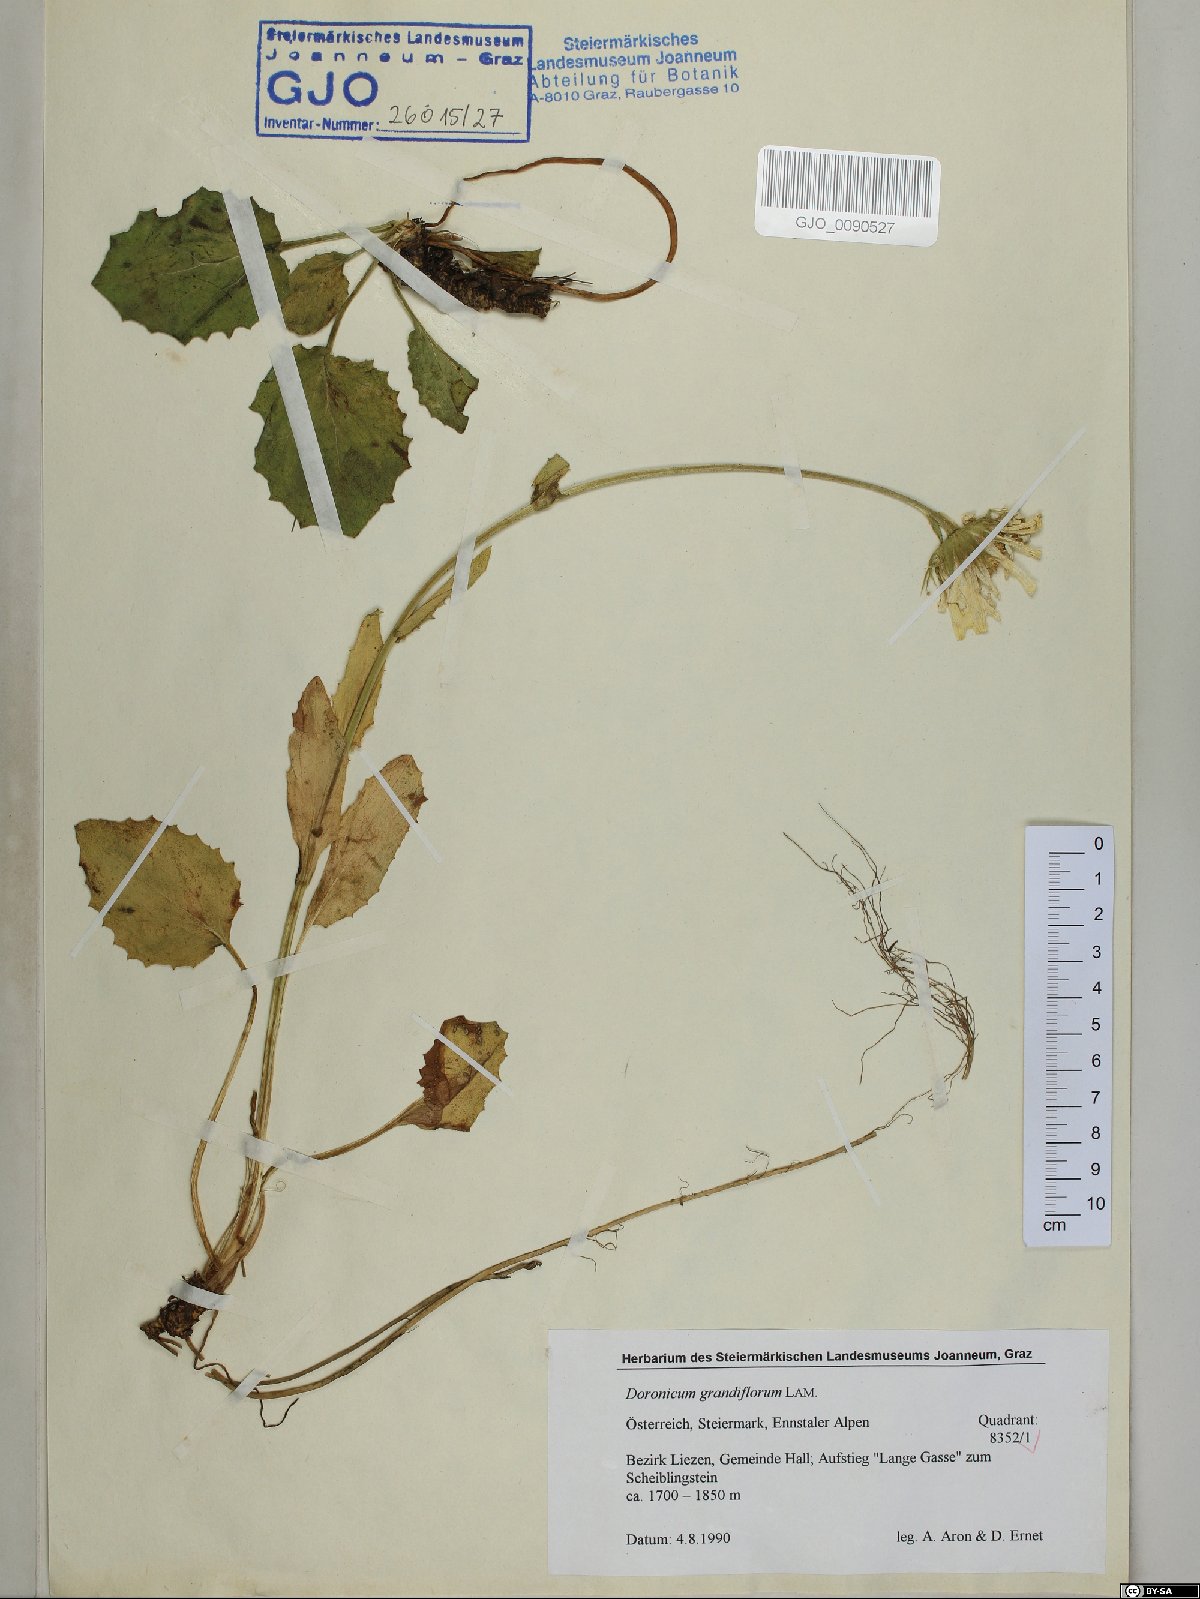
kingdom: Plantae
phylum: Tracheophyta
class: Magnoliopsida
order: Asterales
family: Asteraceae
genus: Doronicum
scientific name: Doronicum grandiflorum
